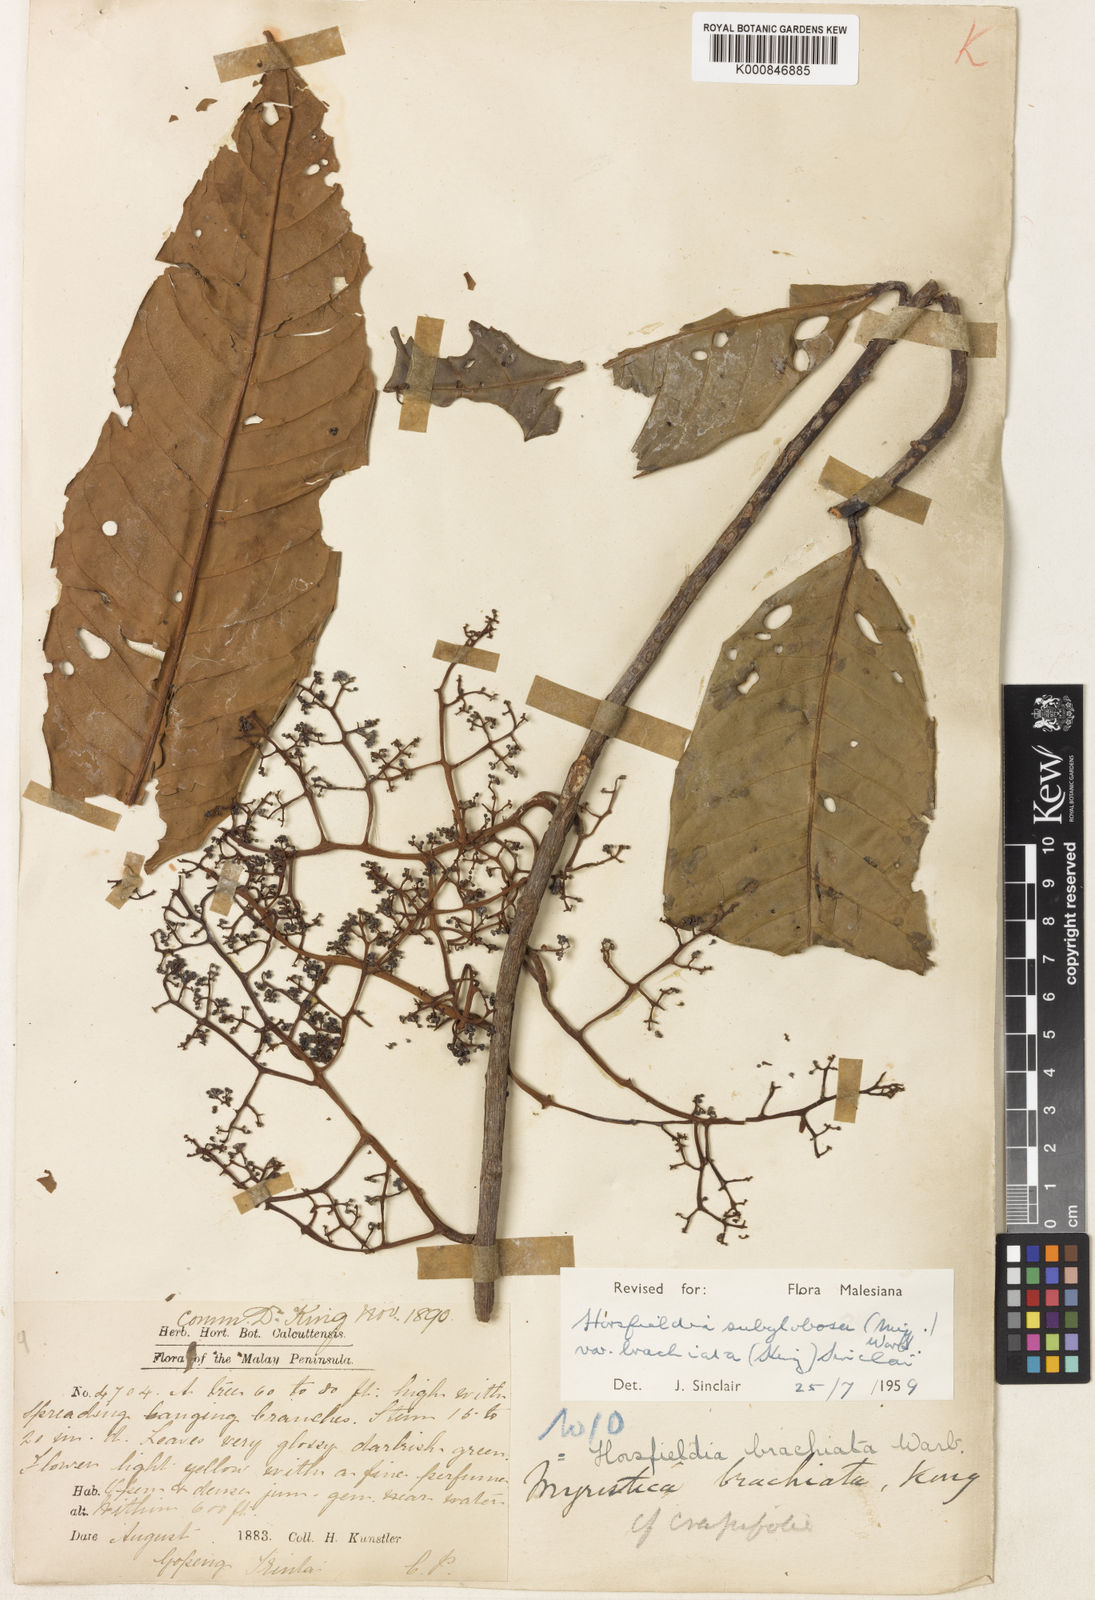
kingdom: Plantae
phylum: Tracheophyta
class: Magnoliopsida
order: Magnoliales
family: Myristicaceae
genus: Horsfieldia
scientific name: Horsfieldia irya
